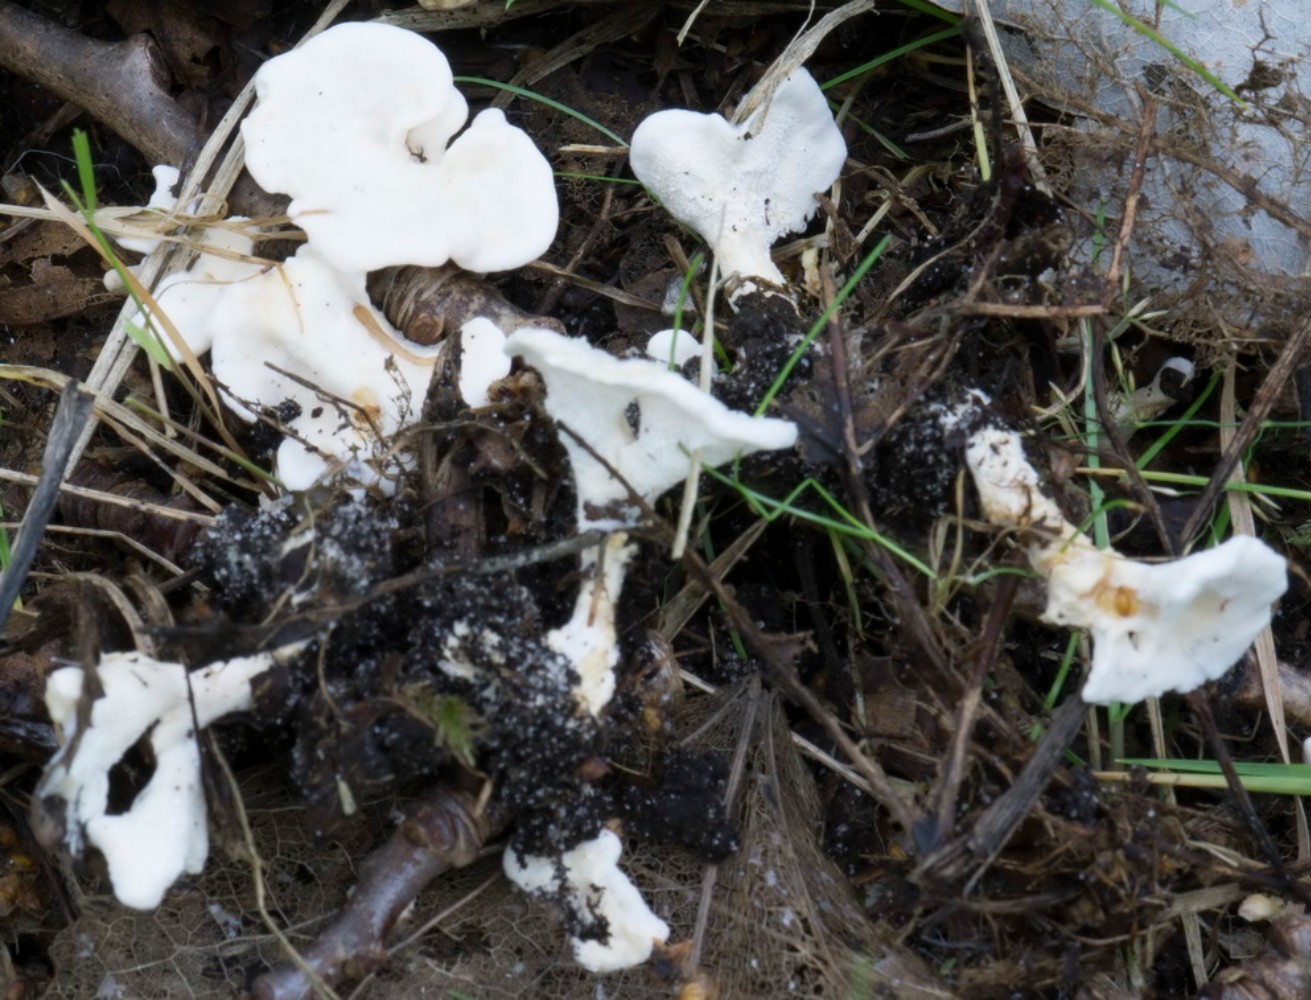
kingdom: Fungi
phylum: Basidiomycota
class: Agaricomycetes
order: Cantharellales
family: Hydnaceae
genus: Sistotrema
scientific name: Sistotrema confluens
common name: stilket kroneskorpe
